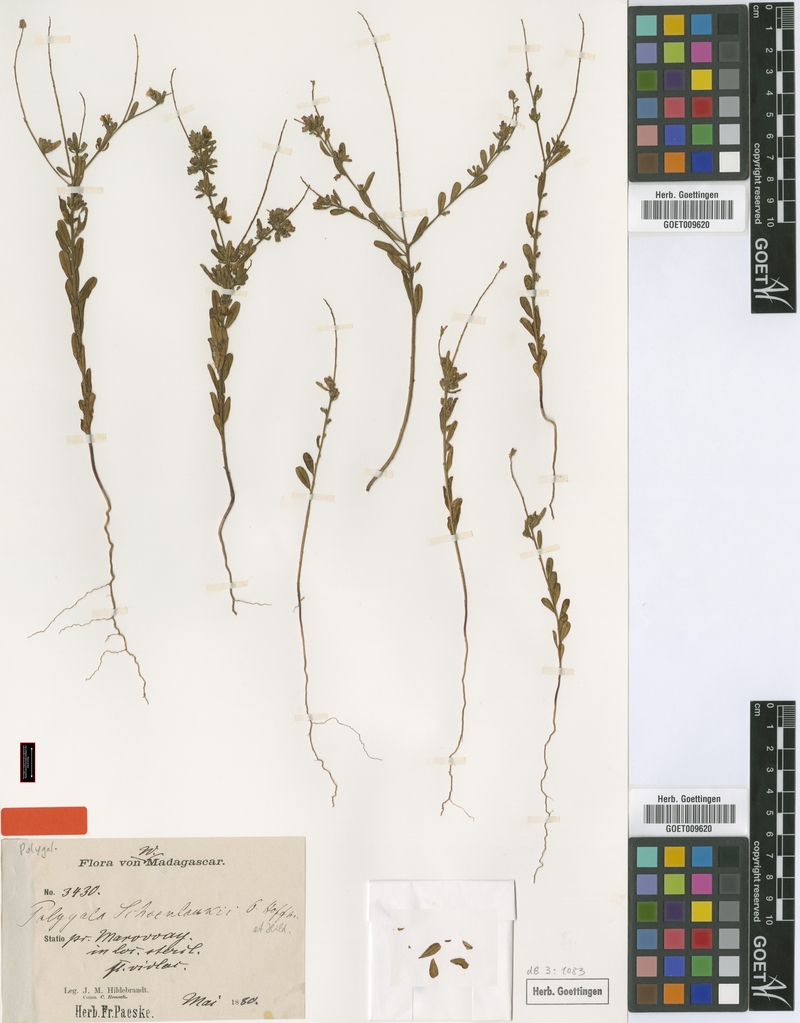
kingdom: Plantae
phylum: Tracheophyta
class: Magnoliopsida
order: Fabales
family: Polygalaceae
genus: Polygala
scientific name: Polygala schoenlankii
